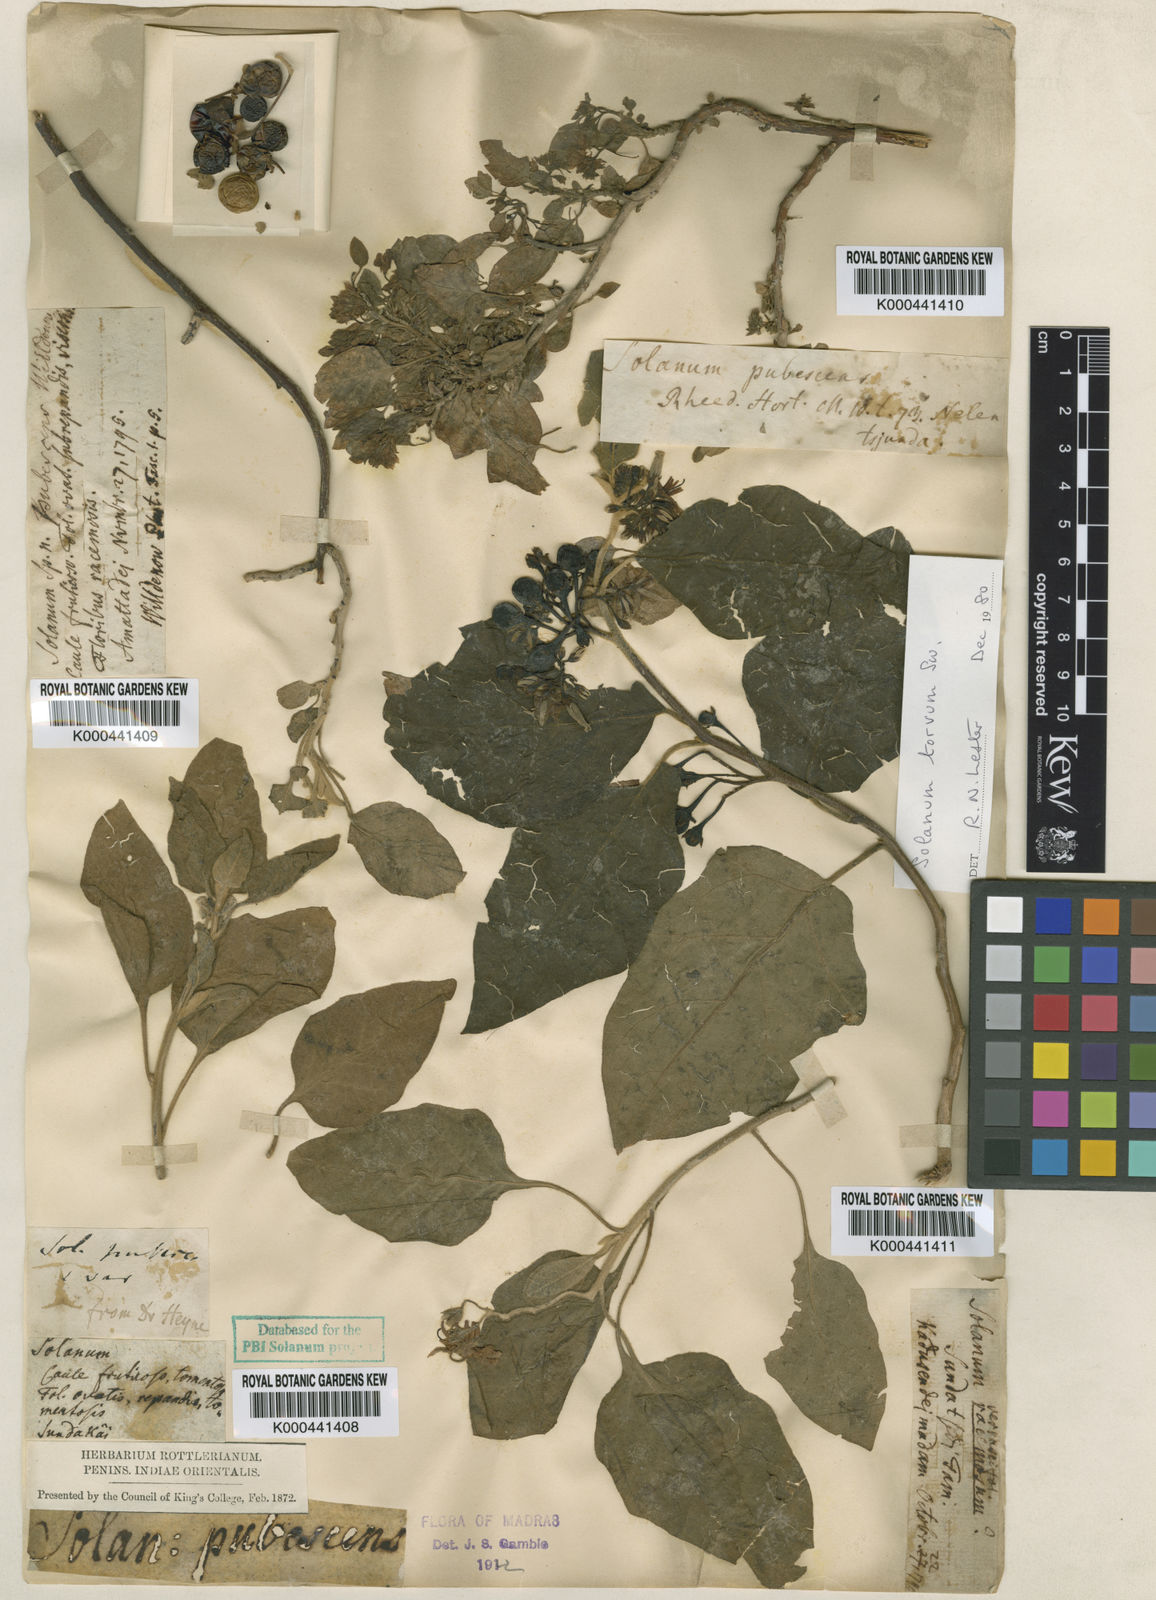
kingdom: Plantae
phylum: Tracheophyta
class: Magnoliopsida
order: Solanales
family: Solanaceae
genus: Solanum
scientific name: Solanum pubescens
